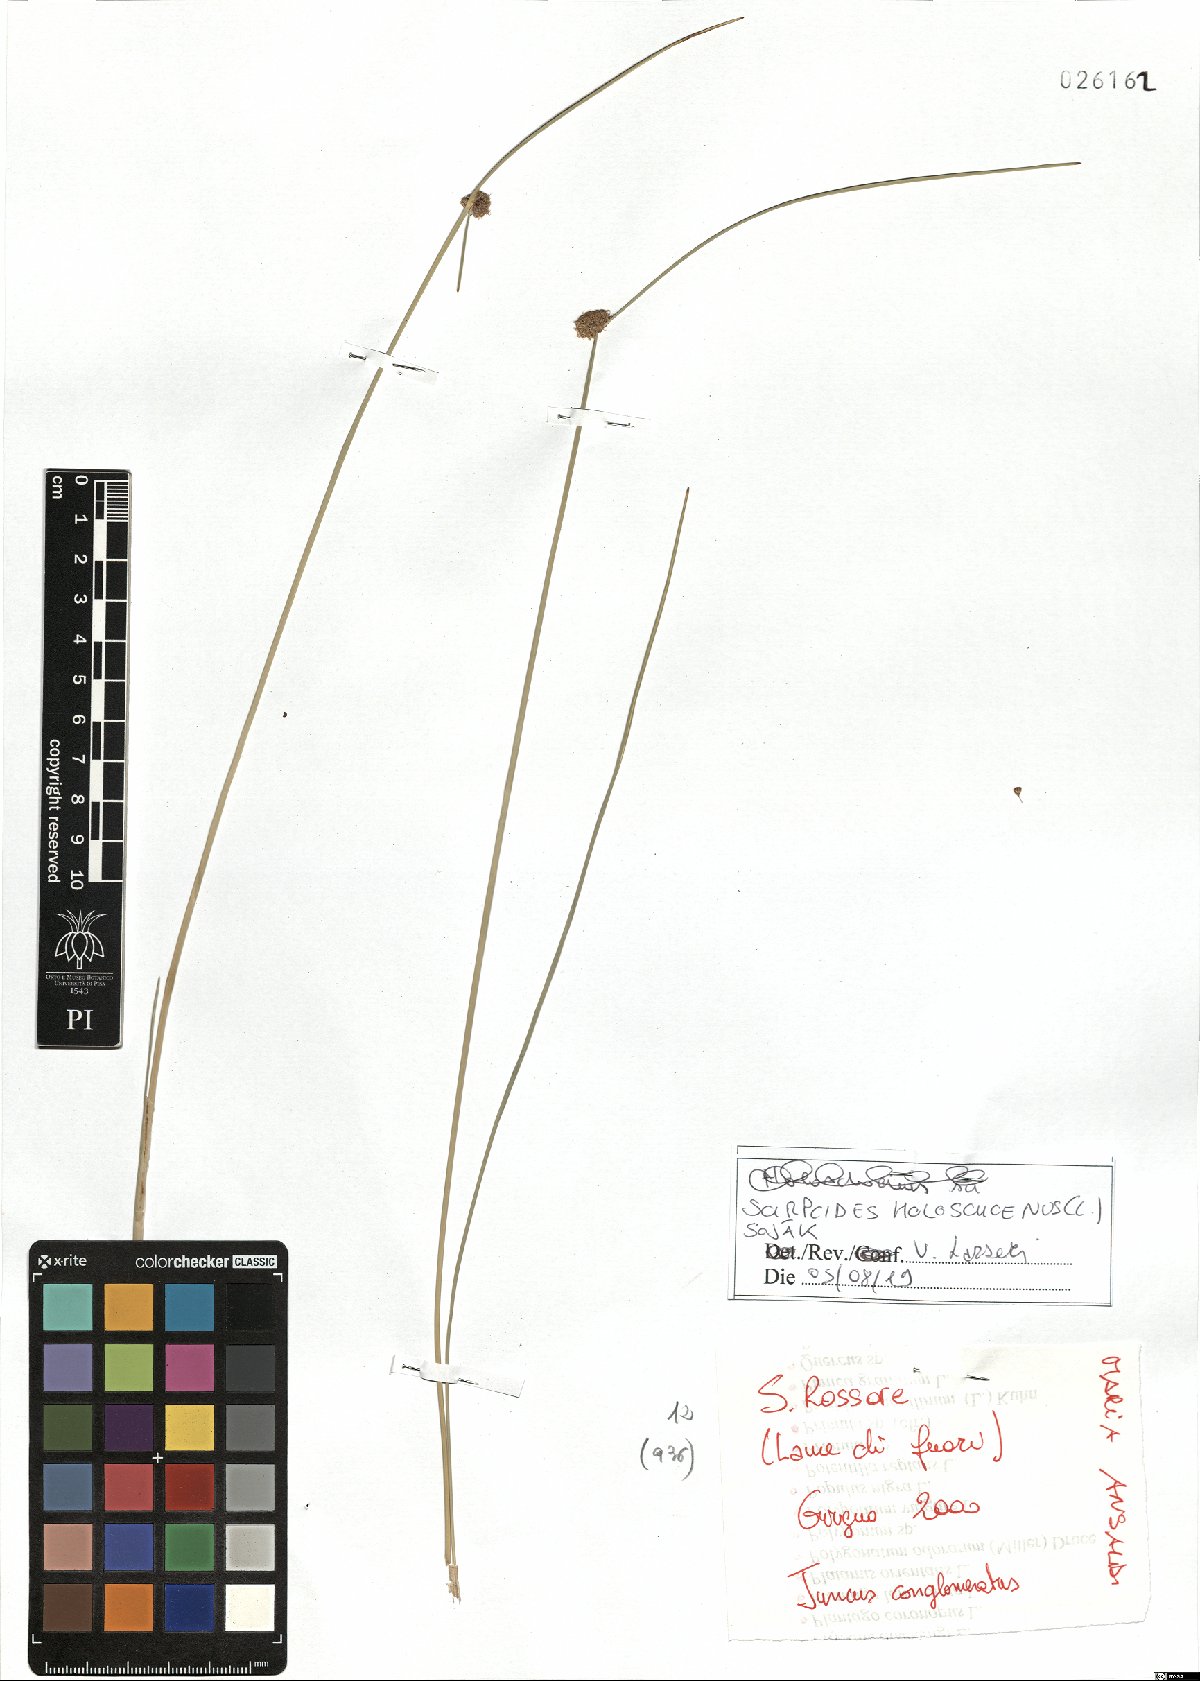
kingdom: Plantae
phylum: Tracheophyta
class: Liliopsida
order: Poales
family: Cyperaceae
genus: Scirpoides
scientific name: Scirpoides holoschoenus
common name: Round-headed club-rush
